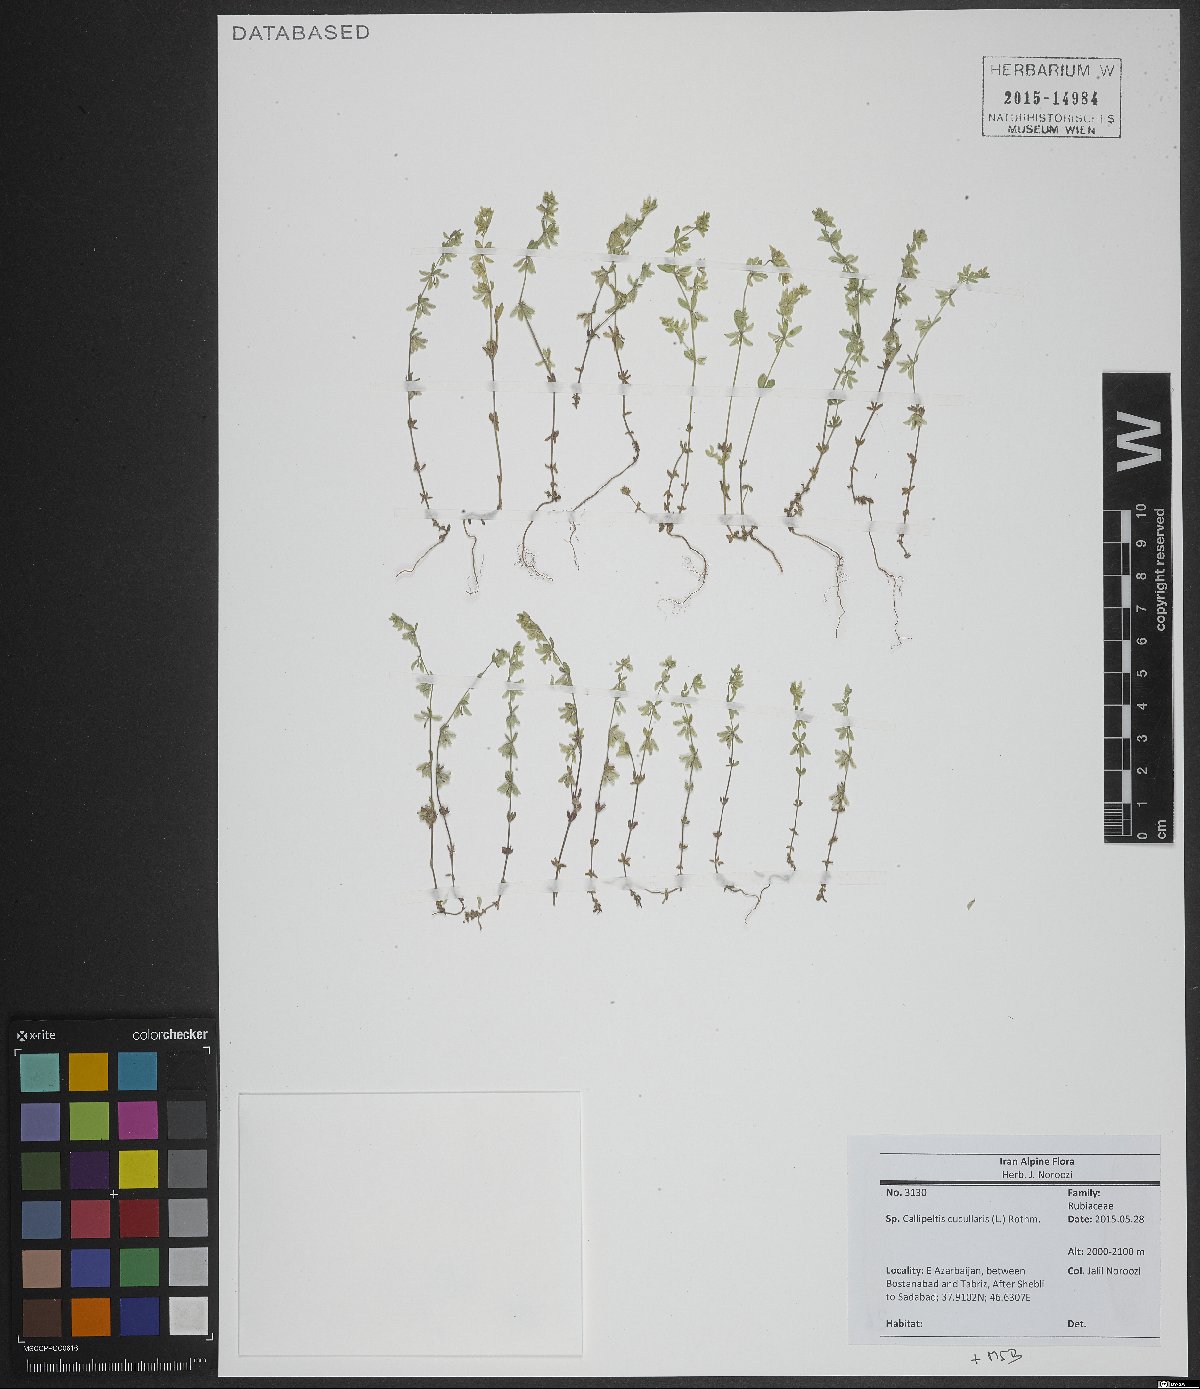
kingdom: Plantae
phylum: Tracheophyta
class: Magnoliopsida
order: Gentianales
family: Rubiaceae
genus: Callipeltis
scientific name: Callipeltis cucullaris
